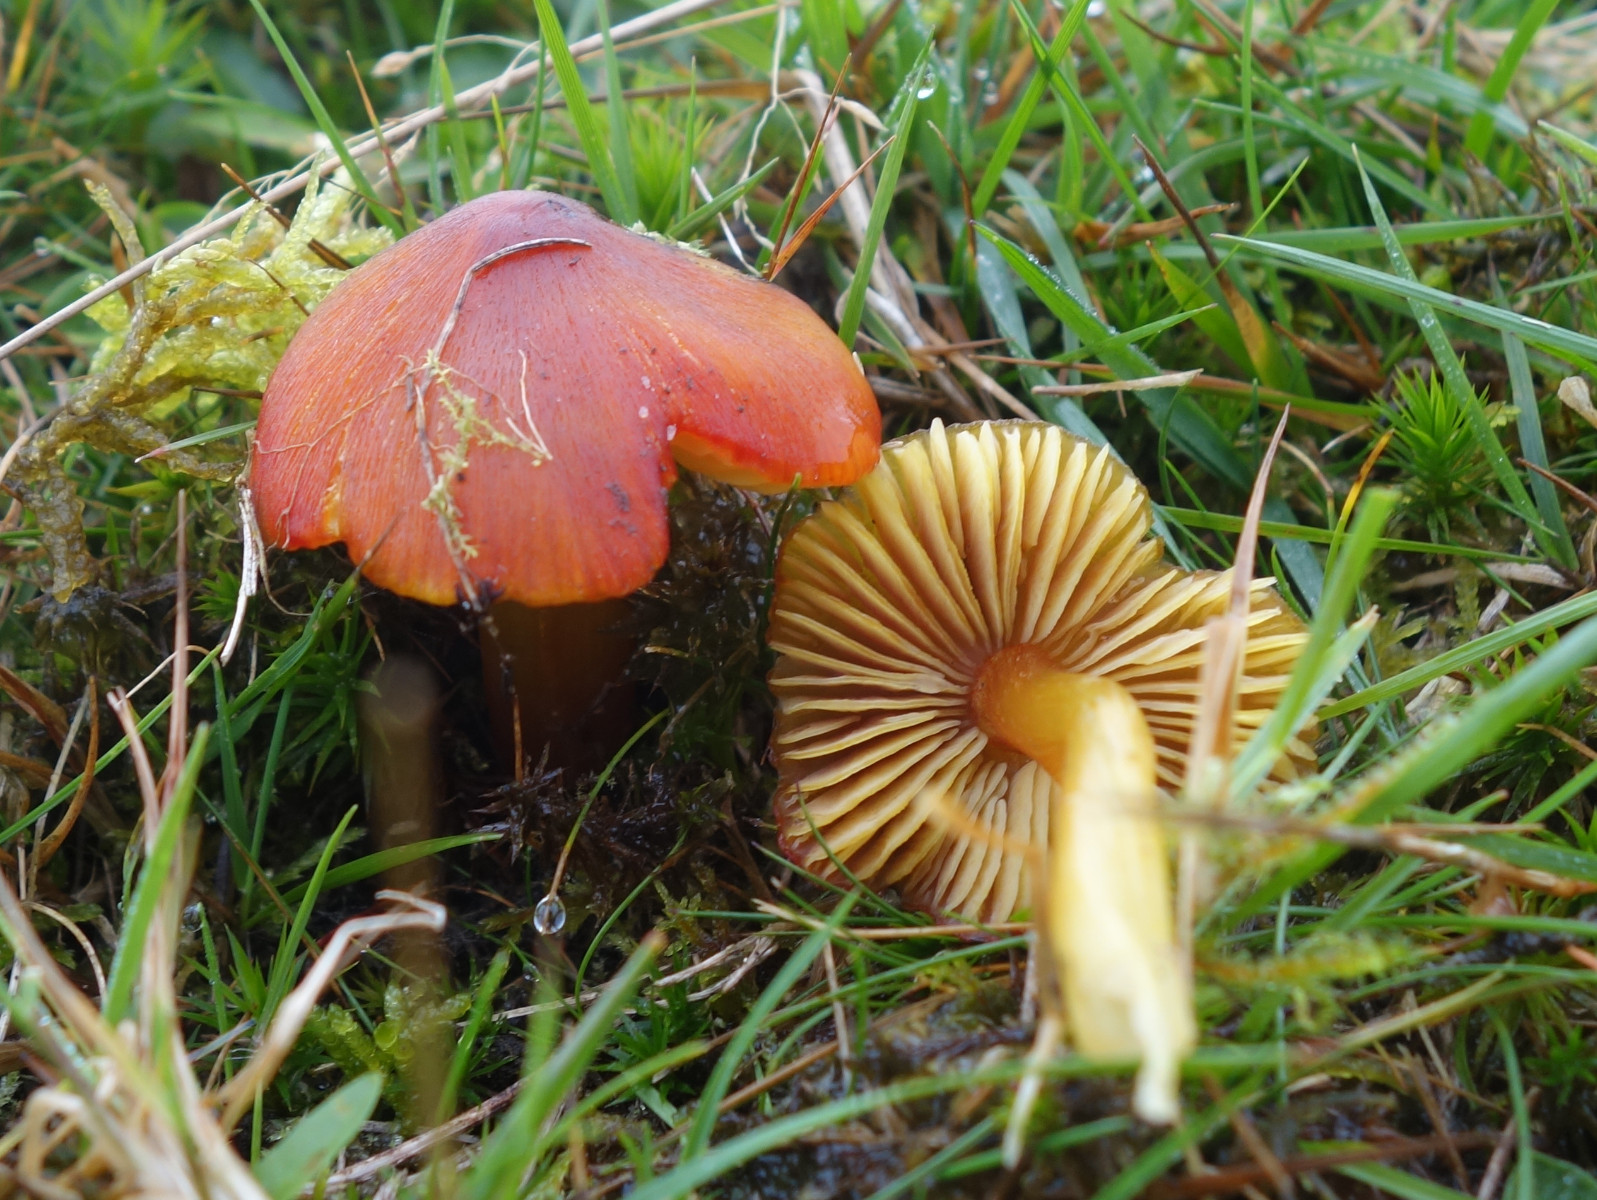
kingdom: Fungi
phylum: Basidiomycota
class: Agaricomycetes
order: Agaricales
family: Hygrophoraceae
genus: Hygrocybe
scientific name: Hygrocybe conica
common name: kegle-vokshat
